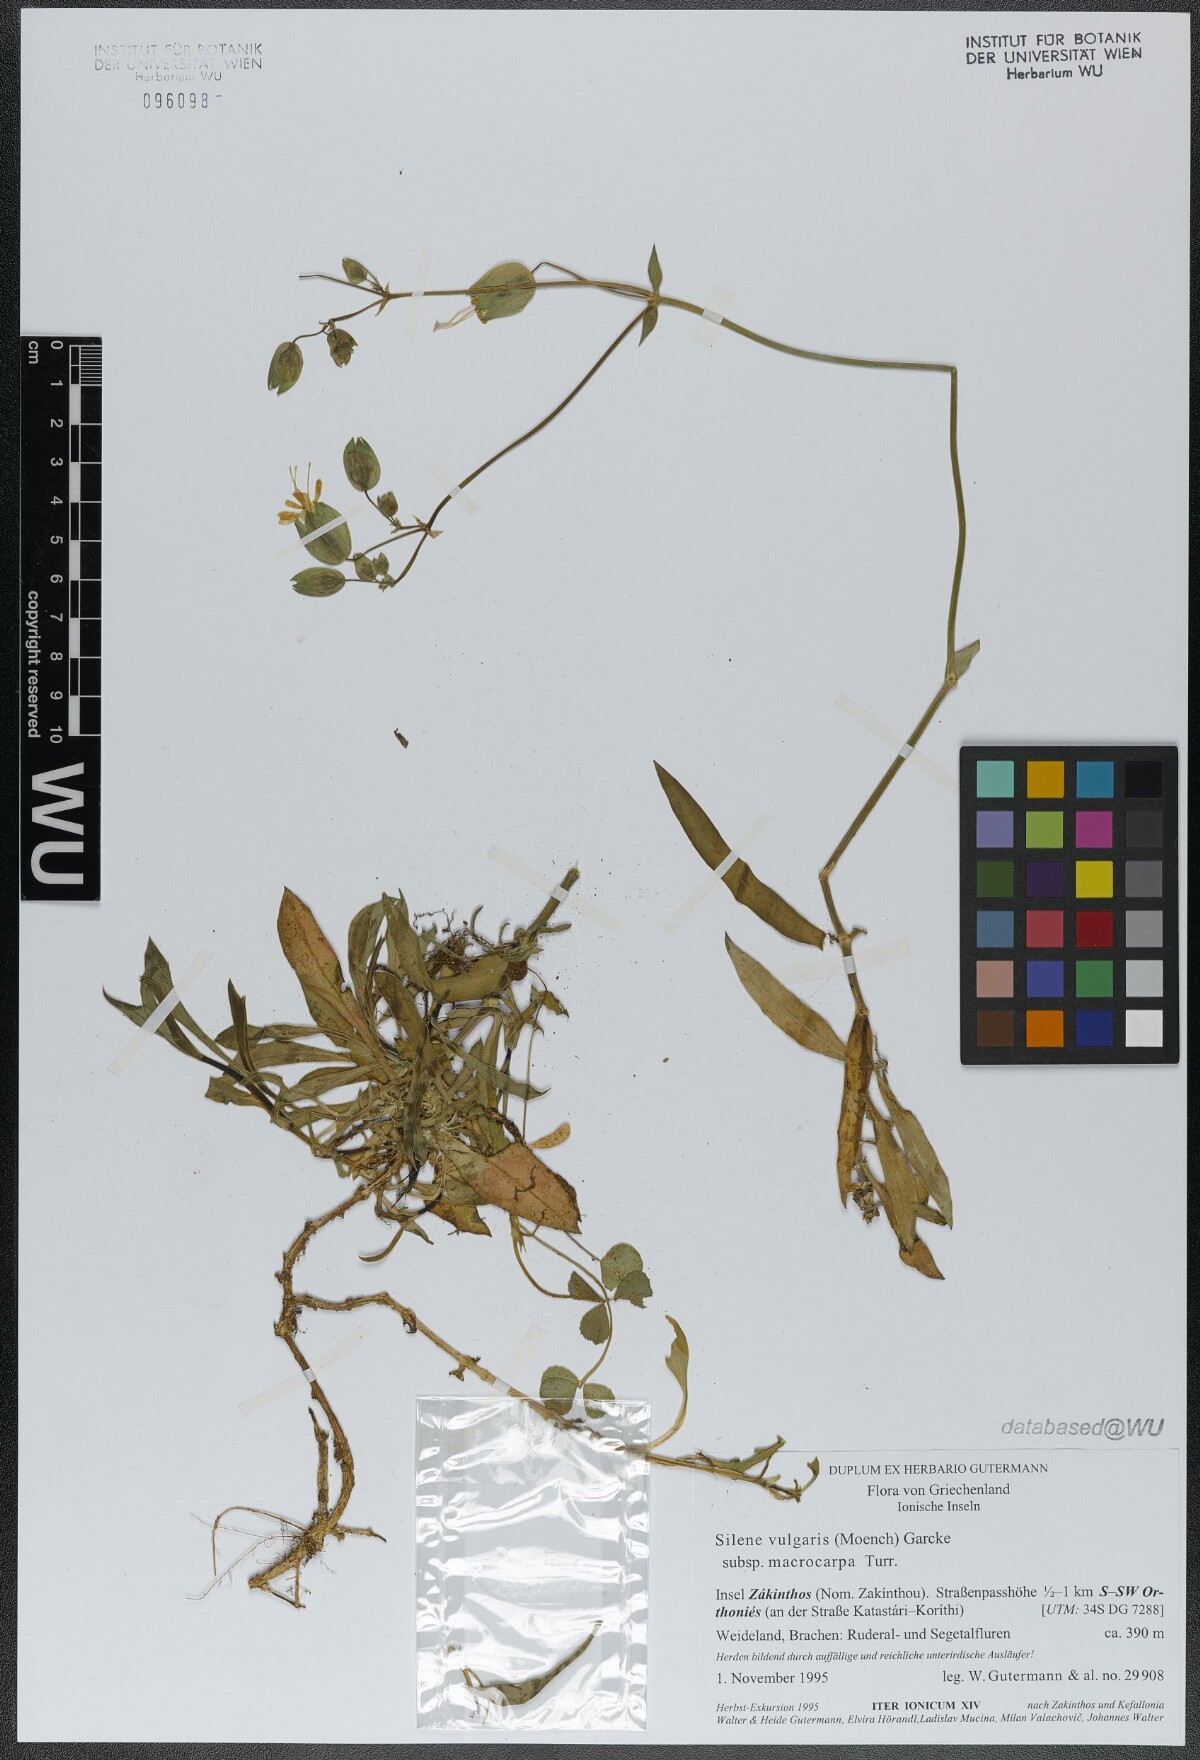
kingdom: Plantae
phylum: Tracheophyta
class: Magnoliopsida
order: Caryophyllales
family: Caryophyllaceae
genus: Silene
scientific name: Silene vulgaris
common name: Bladder campion
